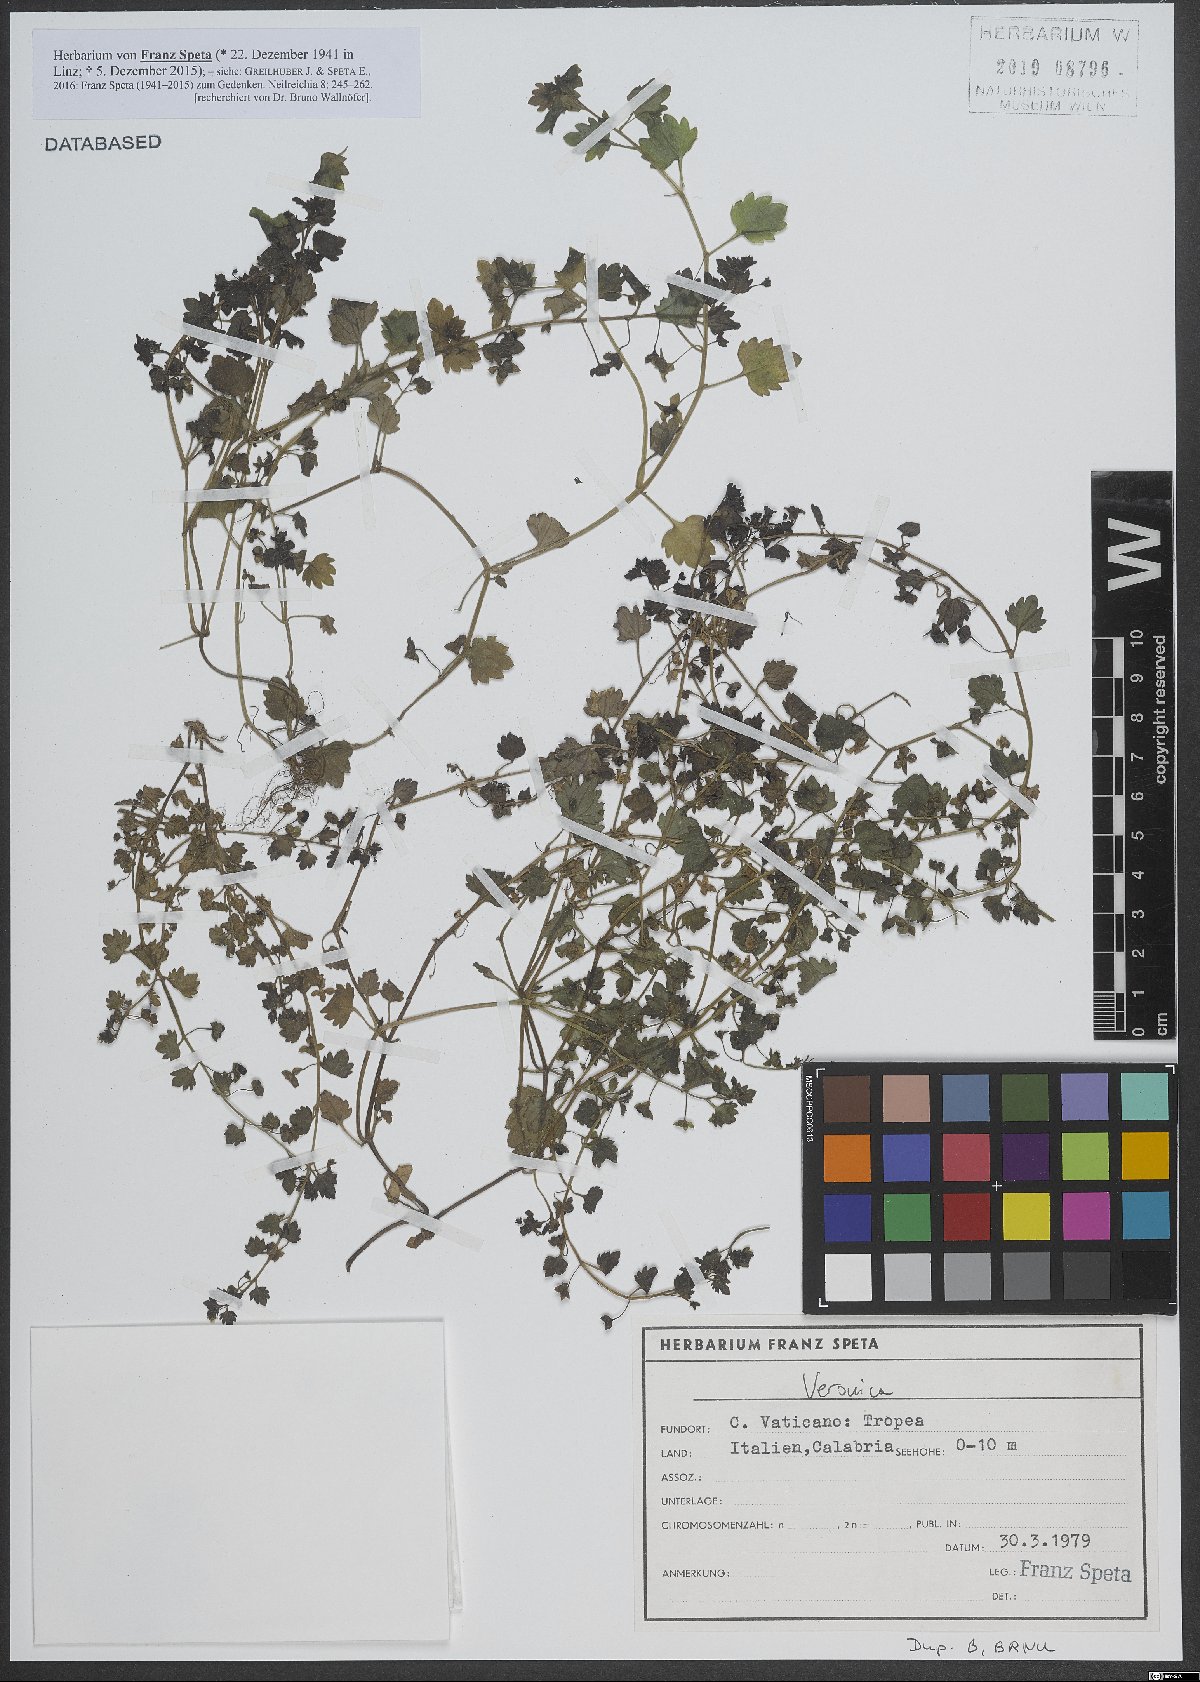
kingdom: Plantae
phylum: Tracheophyta
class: Magnoliopsida
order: Lamiales
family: Plantaginaceae
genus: Veronica
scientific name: Veronica
